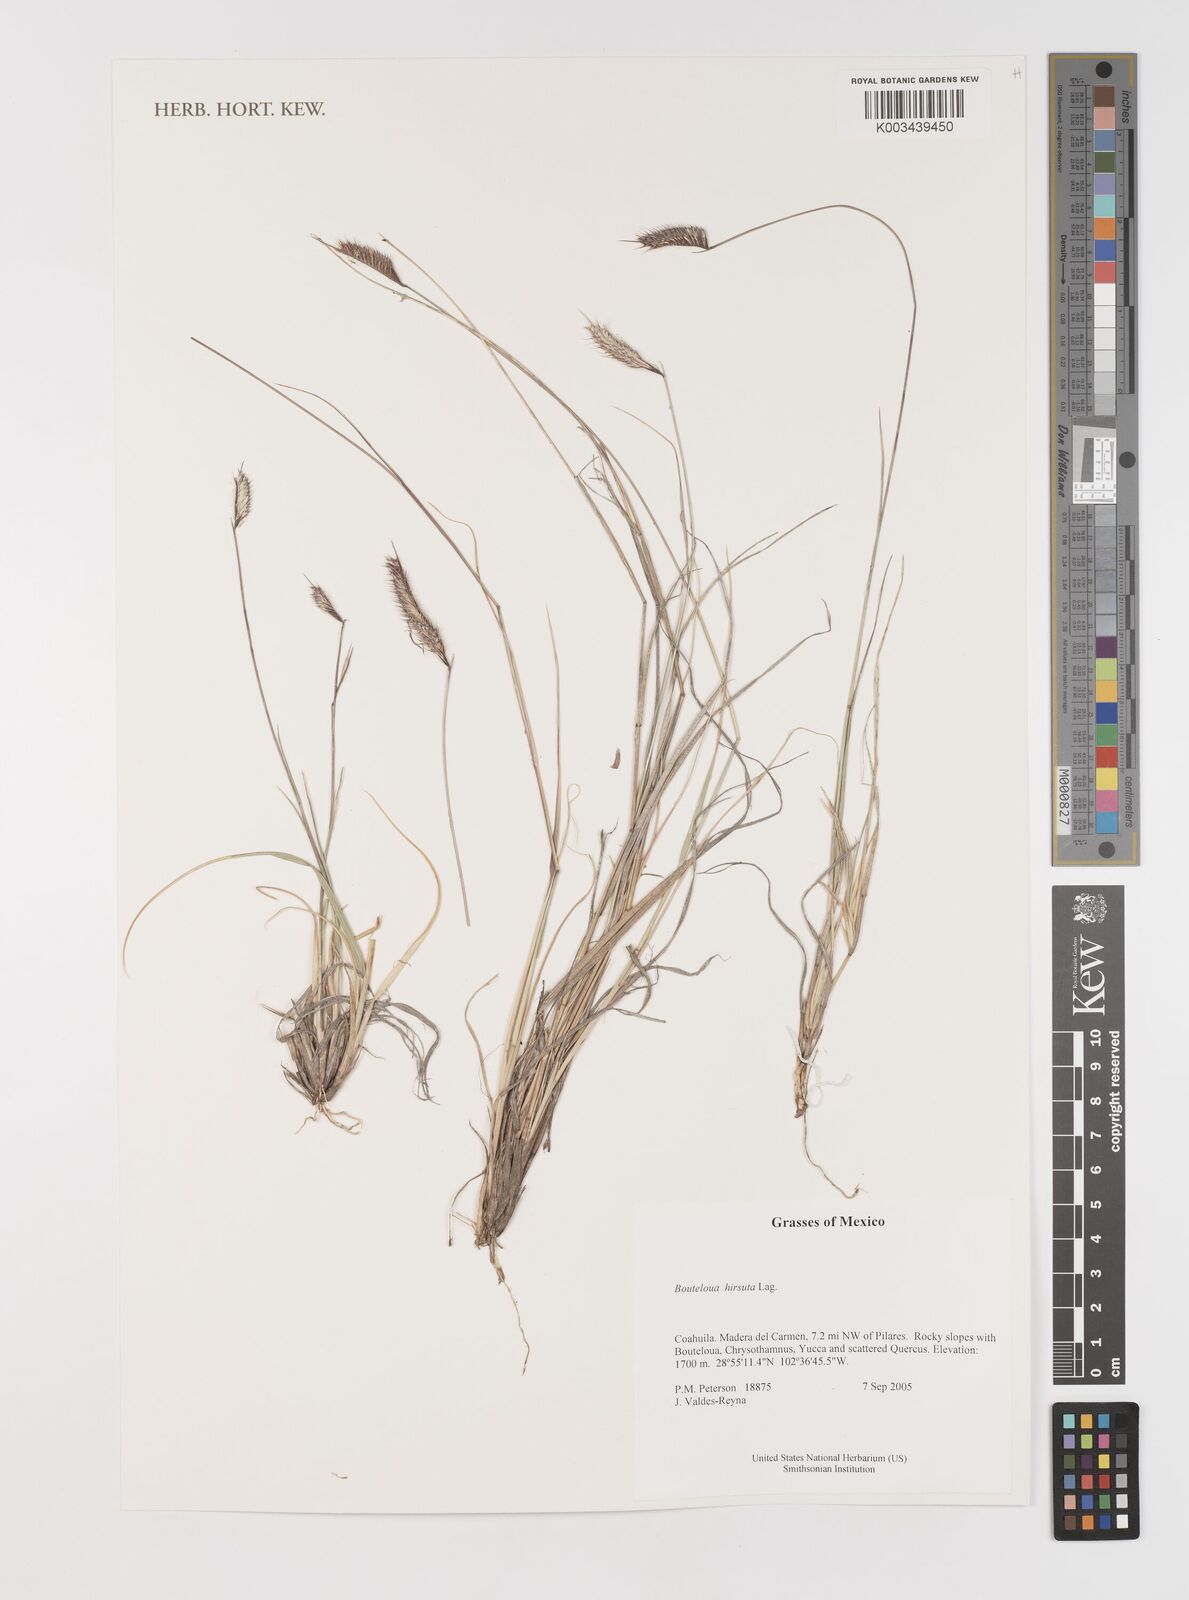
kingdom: Plantae
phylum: Tracheophyta
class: Liliopsida
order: Poales
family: Poaceae
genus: Bouteloua
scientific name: Bouteloua hirsuta
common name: Hairy grama
